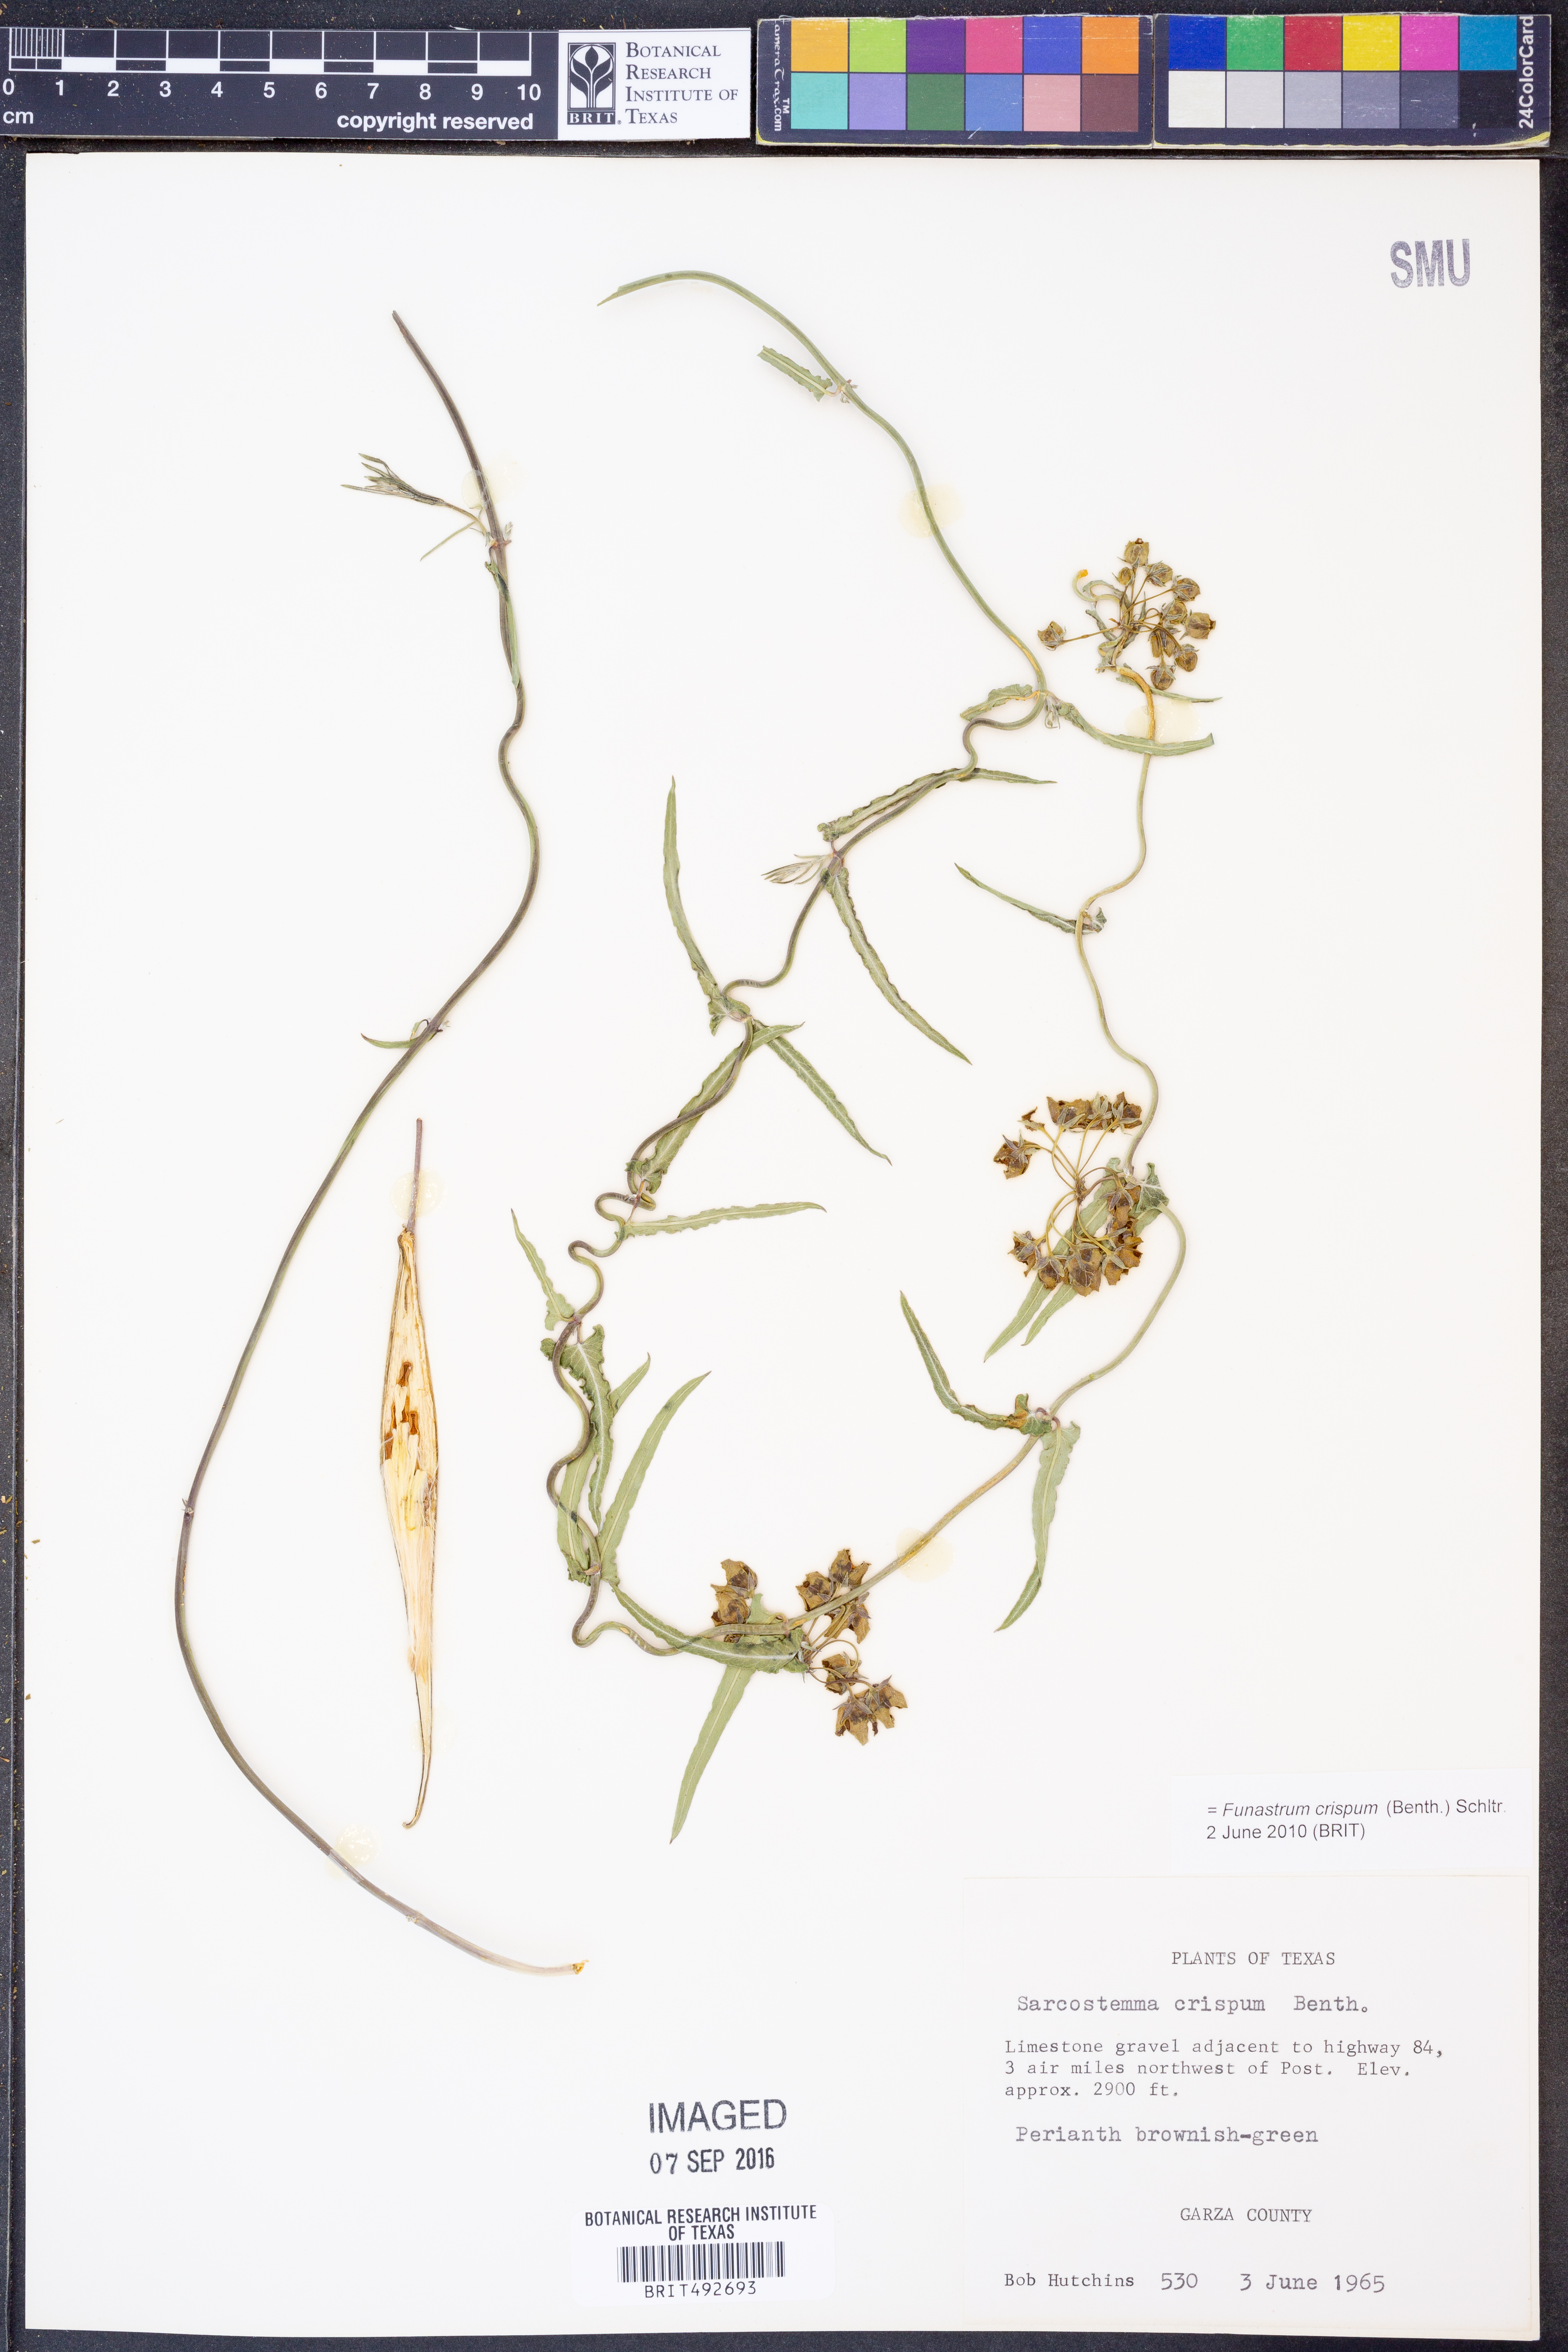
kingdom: Plantae
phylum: Tracheophyta
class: Magnoliopsida
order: Gentianales
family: Apocynaceae
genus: Funastrum
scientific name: Funastrum crispum
